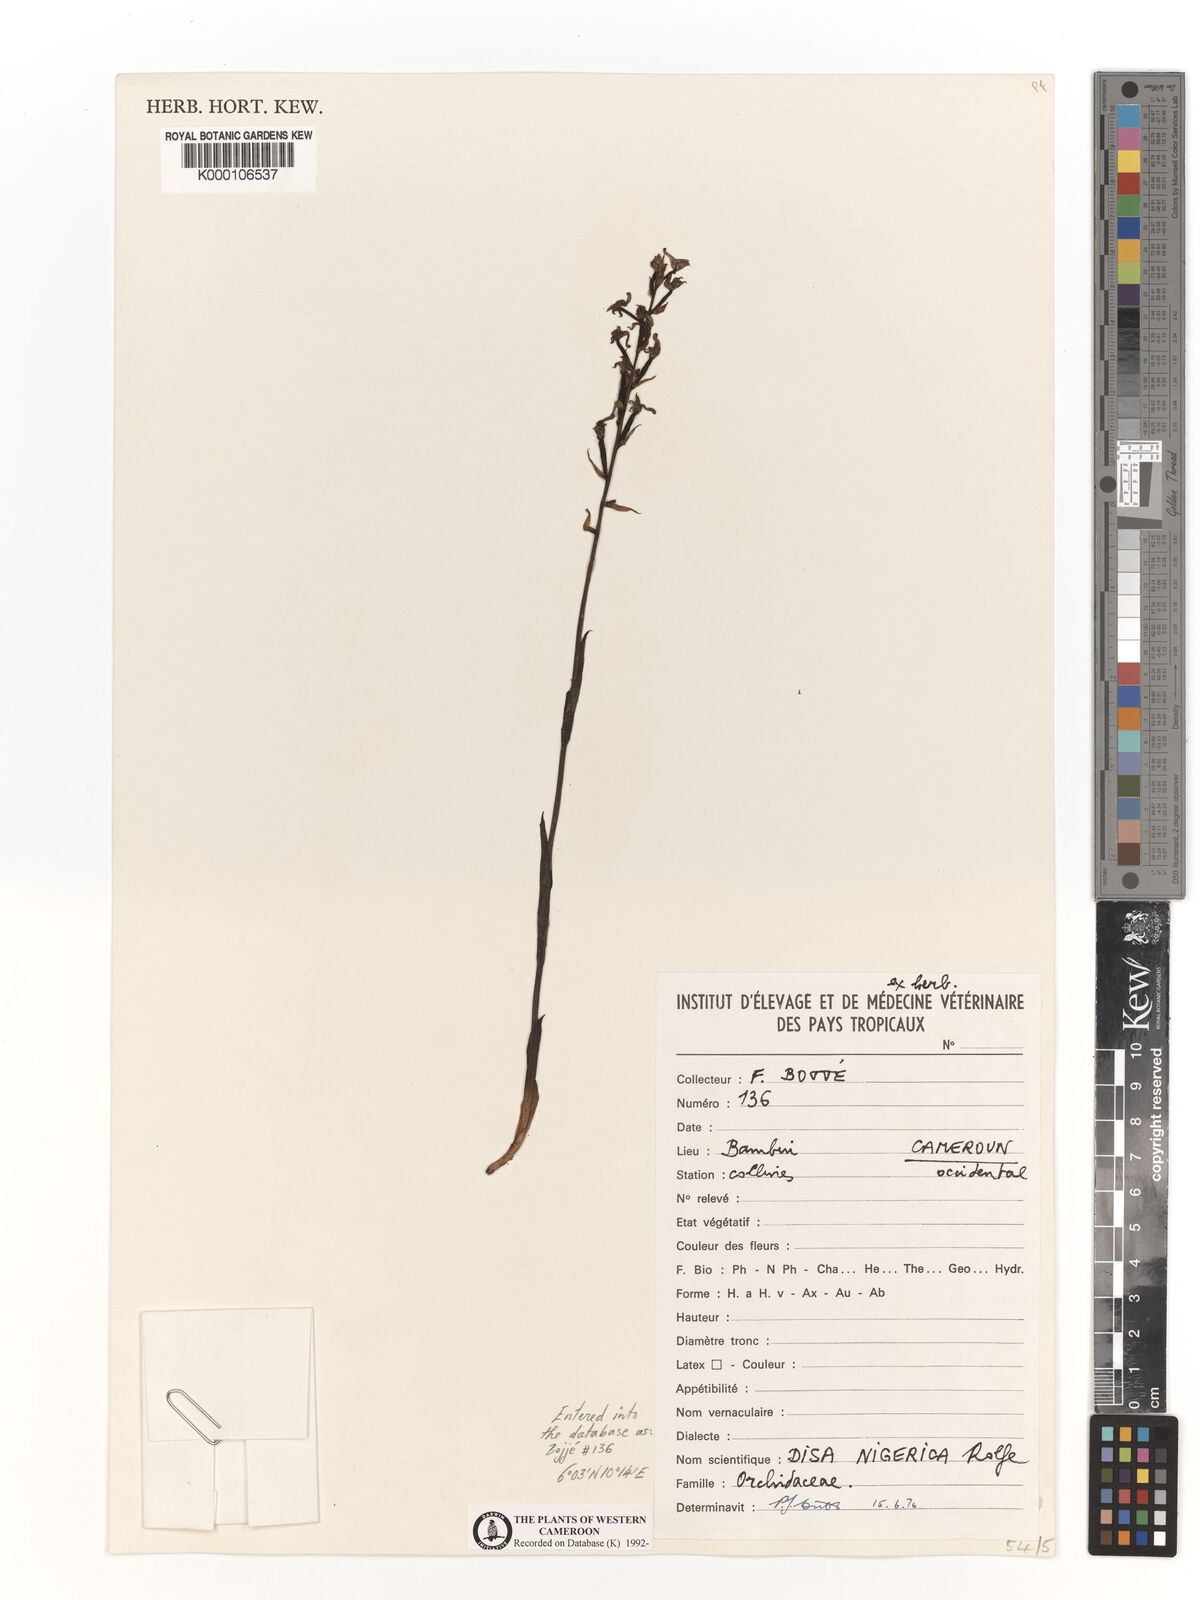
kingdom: Plantae
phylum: Tracheophyta
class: Liliopsida
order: Asparagales
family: Orchidaceae
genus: Disa
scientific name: Disa nigerica
